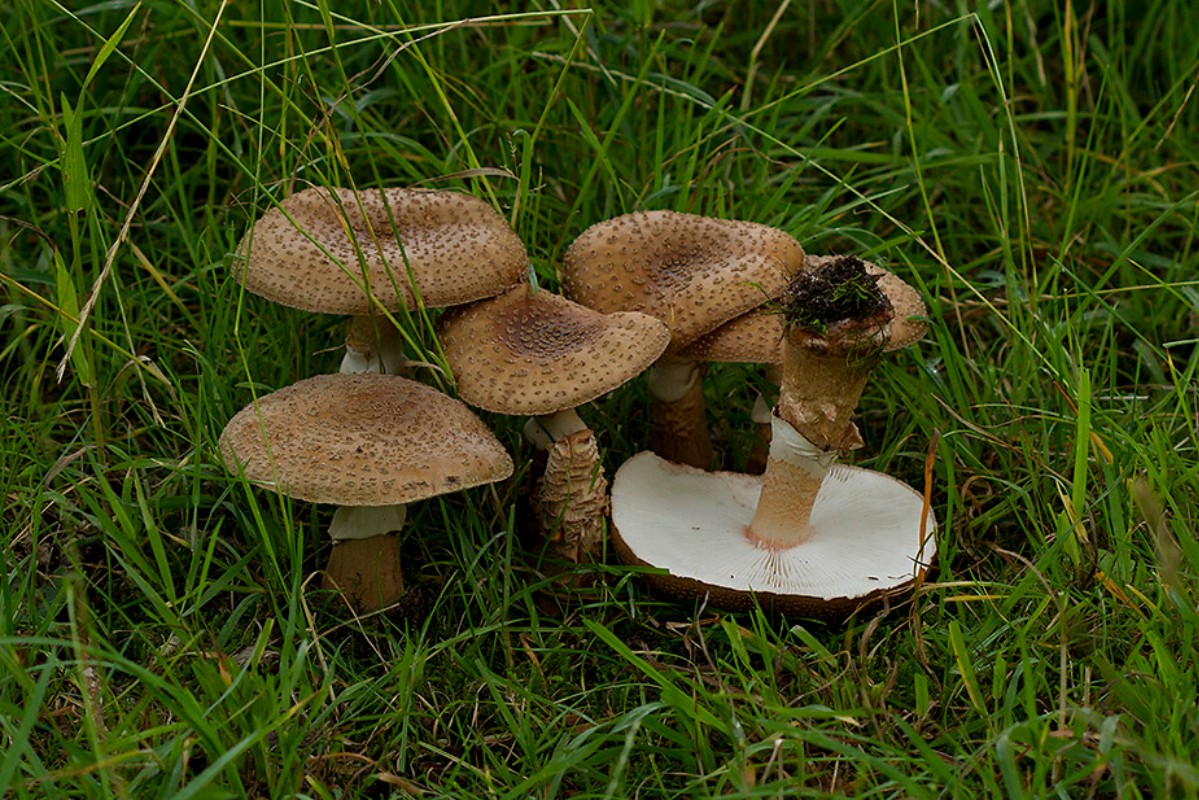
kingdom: Fungi
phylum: Basidiomycota
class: Agaricomycetes
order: Agaricales
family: Amanitaceae
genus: Amanita
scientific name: Amanita rubescens
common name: rødmende fluesvamp
